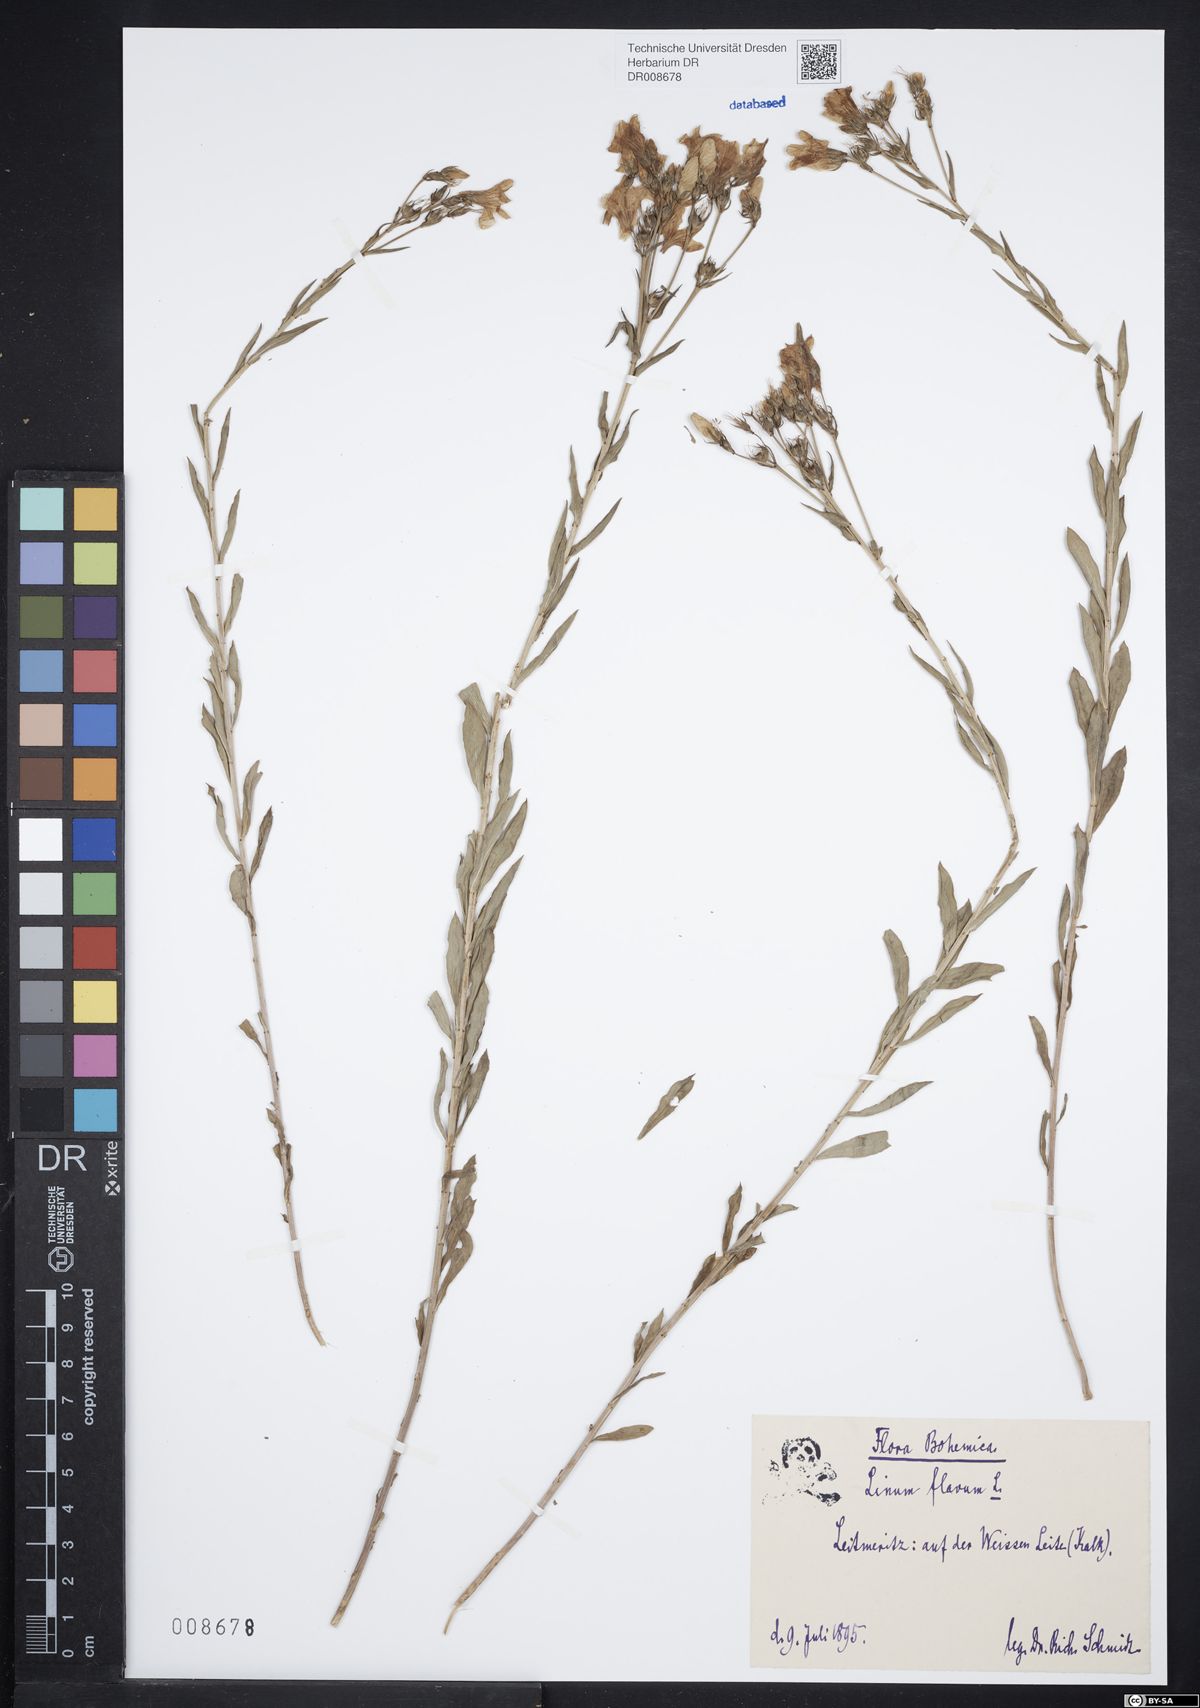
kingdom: Plantae
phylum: Tracheophyta
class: Magnoliopsida
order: Malpighiales
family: Linaceae
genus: Linum
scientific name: Linum flavum
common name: Yellow flax
